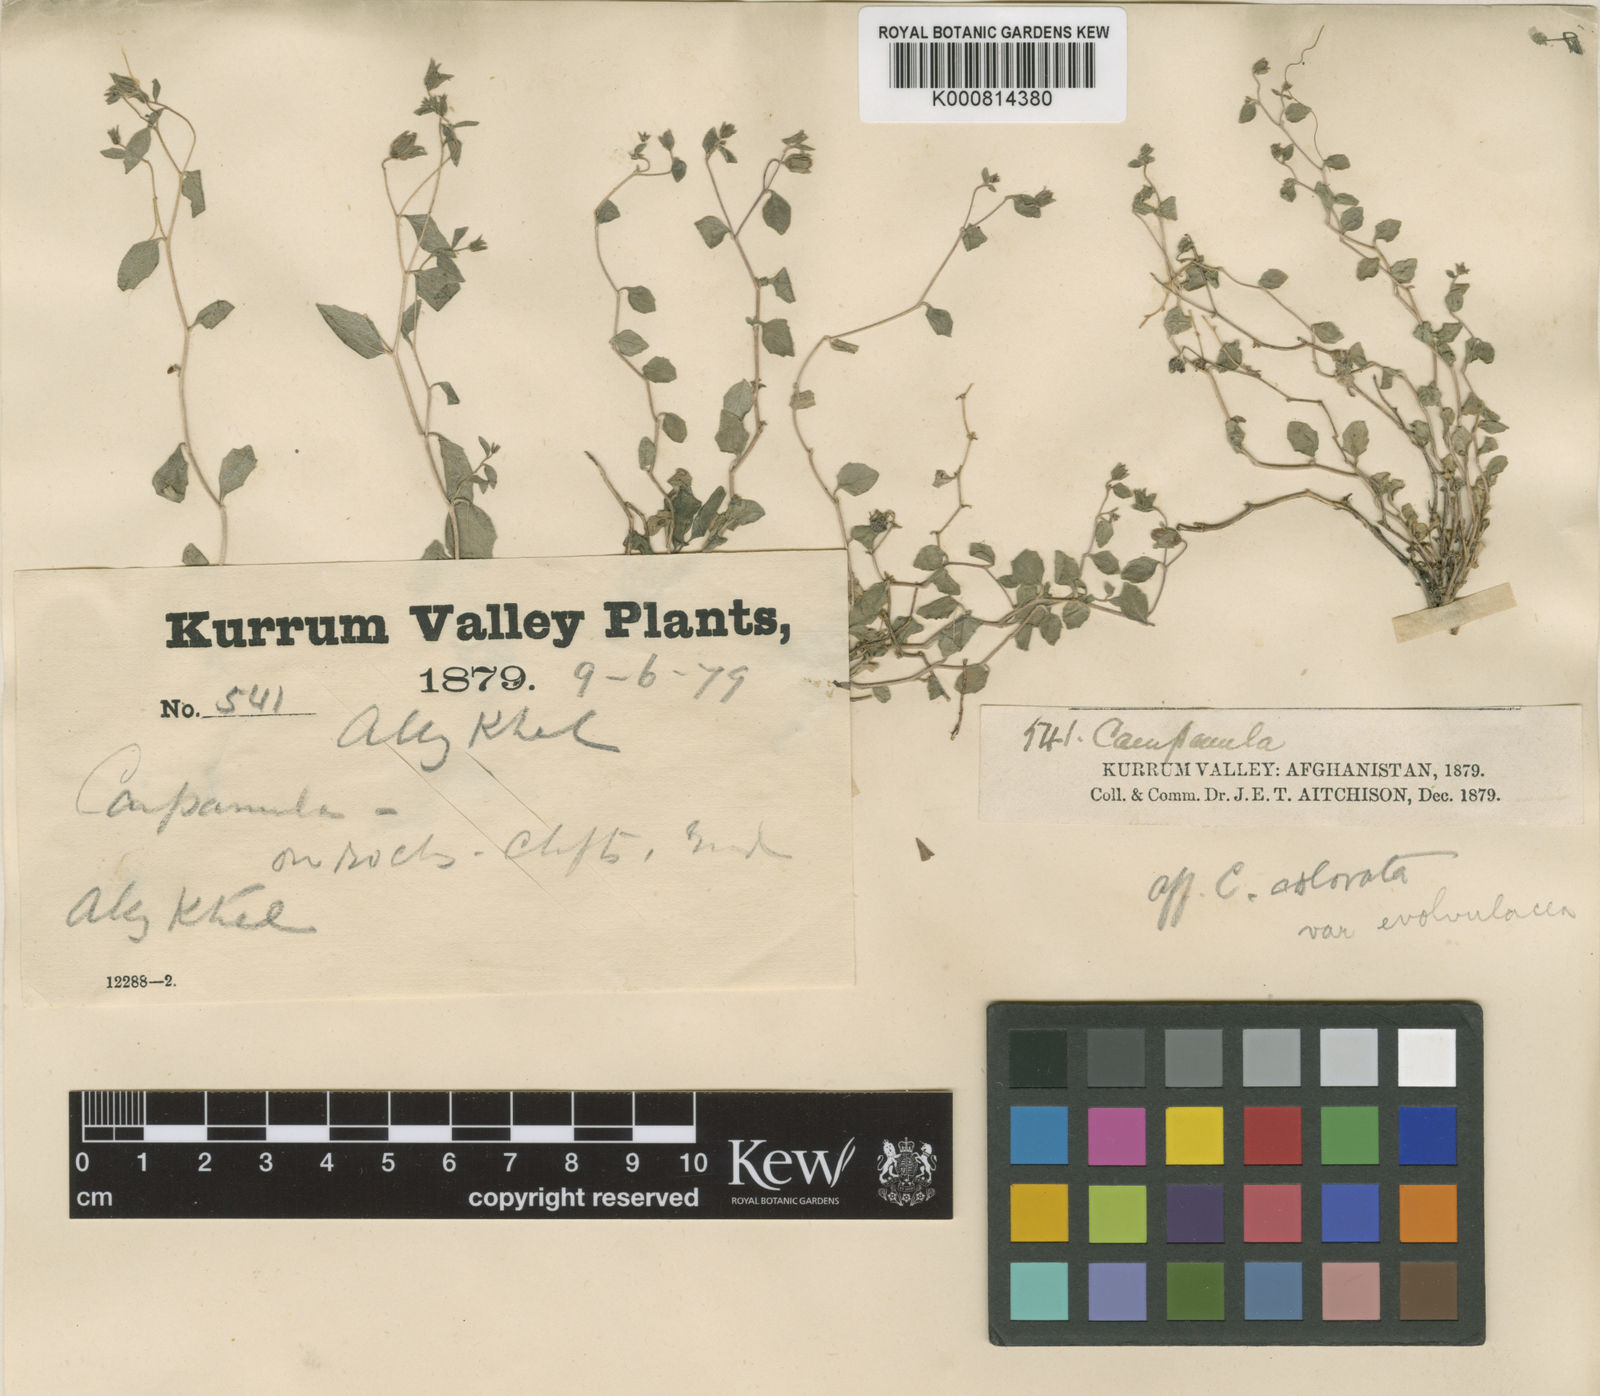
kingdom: Plantae
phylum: Tracheophyta
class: Magnoliopsida
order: Asterales
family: Campanulaceae
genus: Campanula
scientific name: Campanula cashmeriana
